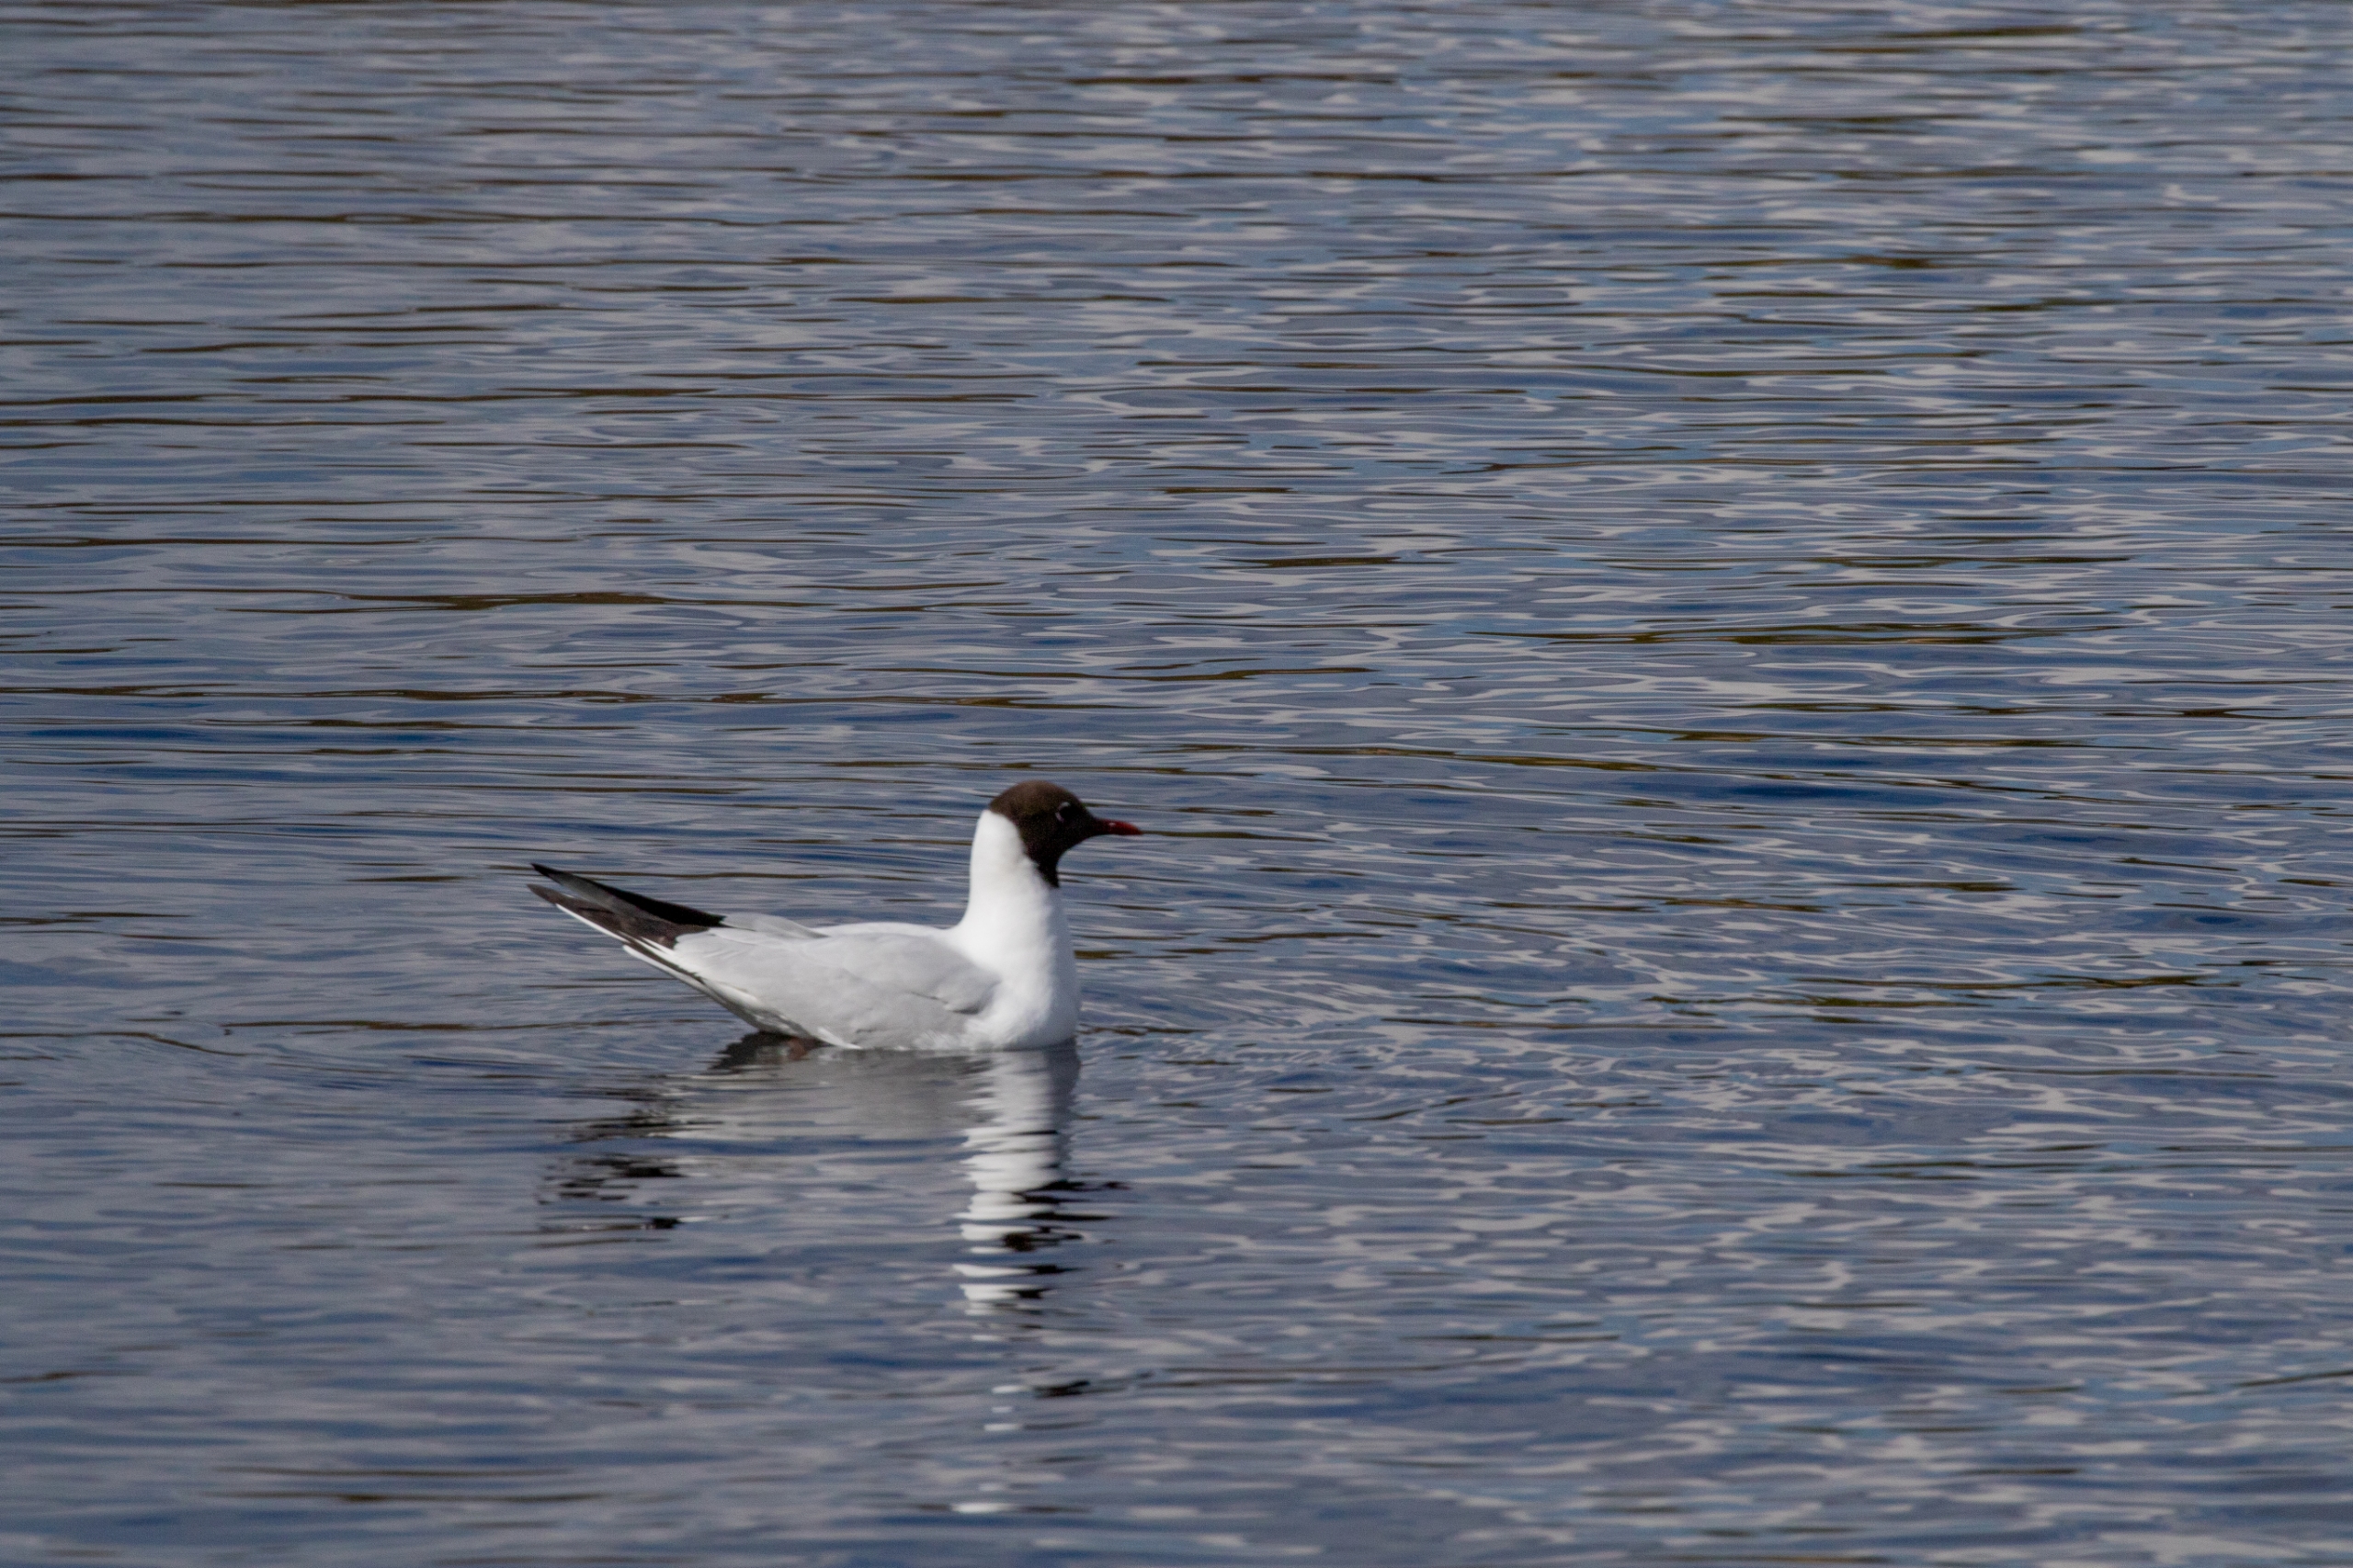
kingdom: Animalia
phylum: Chordata
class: Aves
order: Charadriiformes
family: Laridae
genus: Chroicocephalus
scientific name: Chroicocephalus ridibundus
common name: Hættemåge
